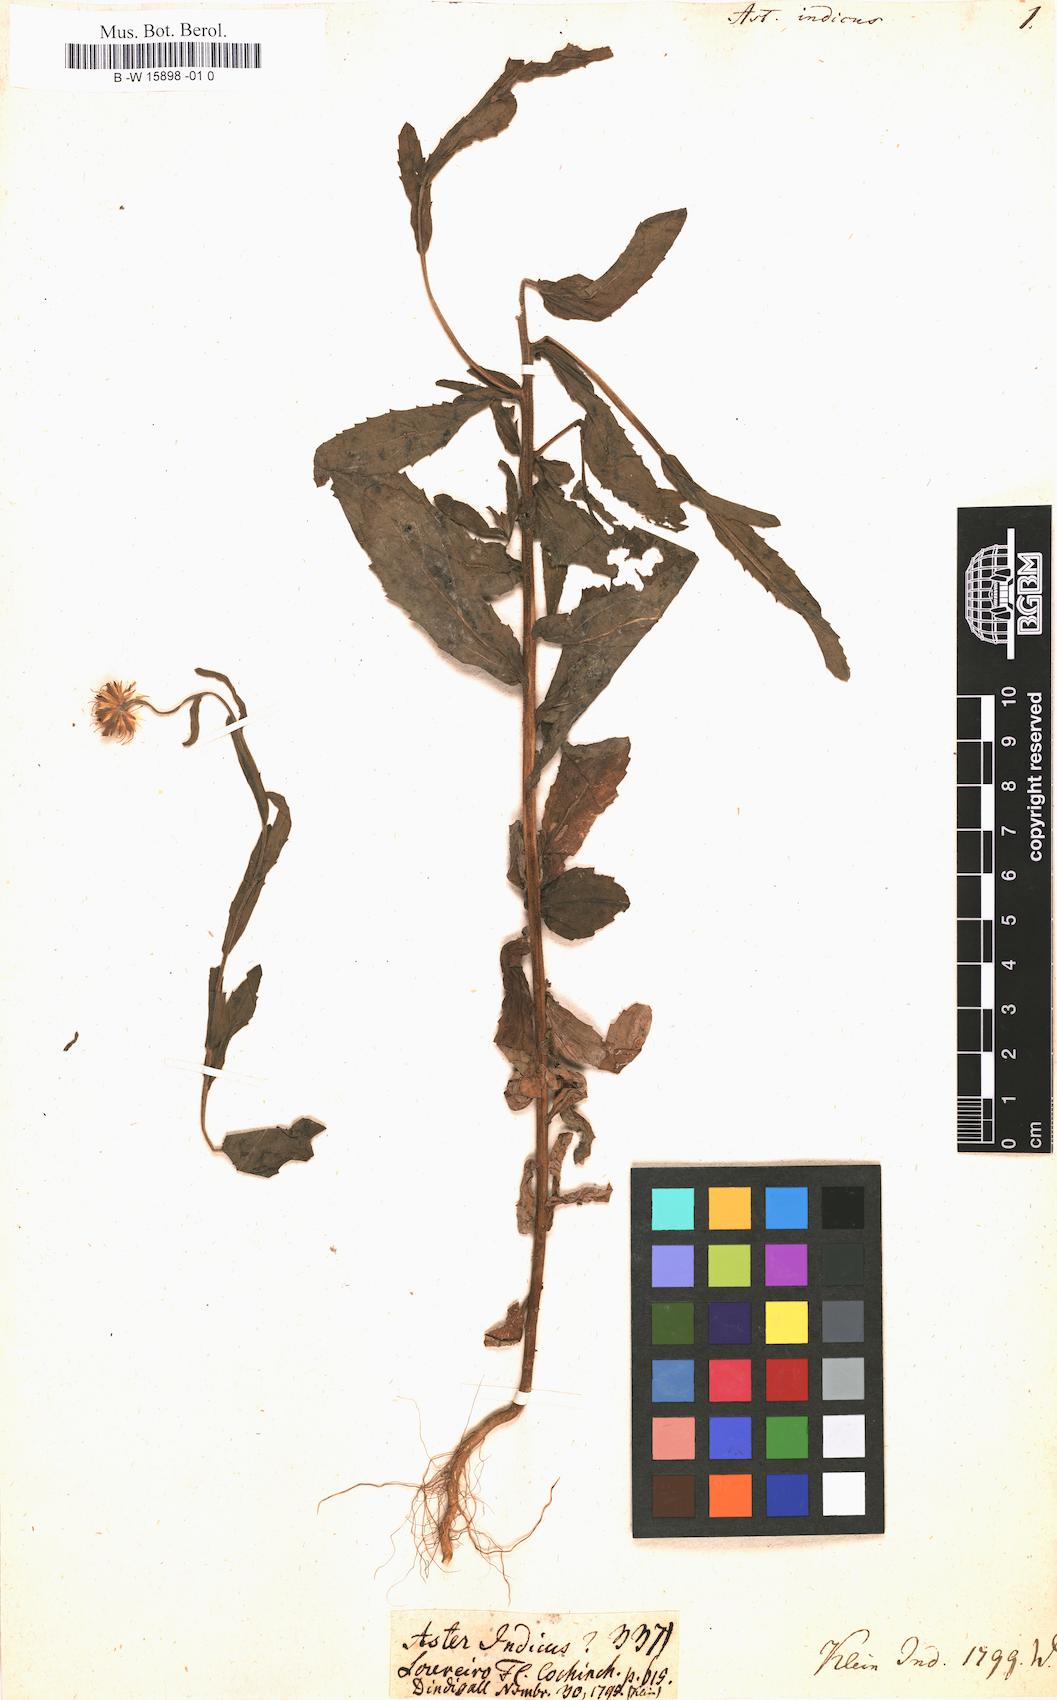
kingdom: Plantae
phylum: Tracheophyta
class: Magnoliopsida
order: Asterales
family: Asteraceae
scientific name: Asteraceae
